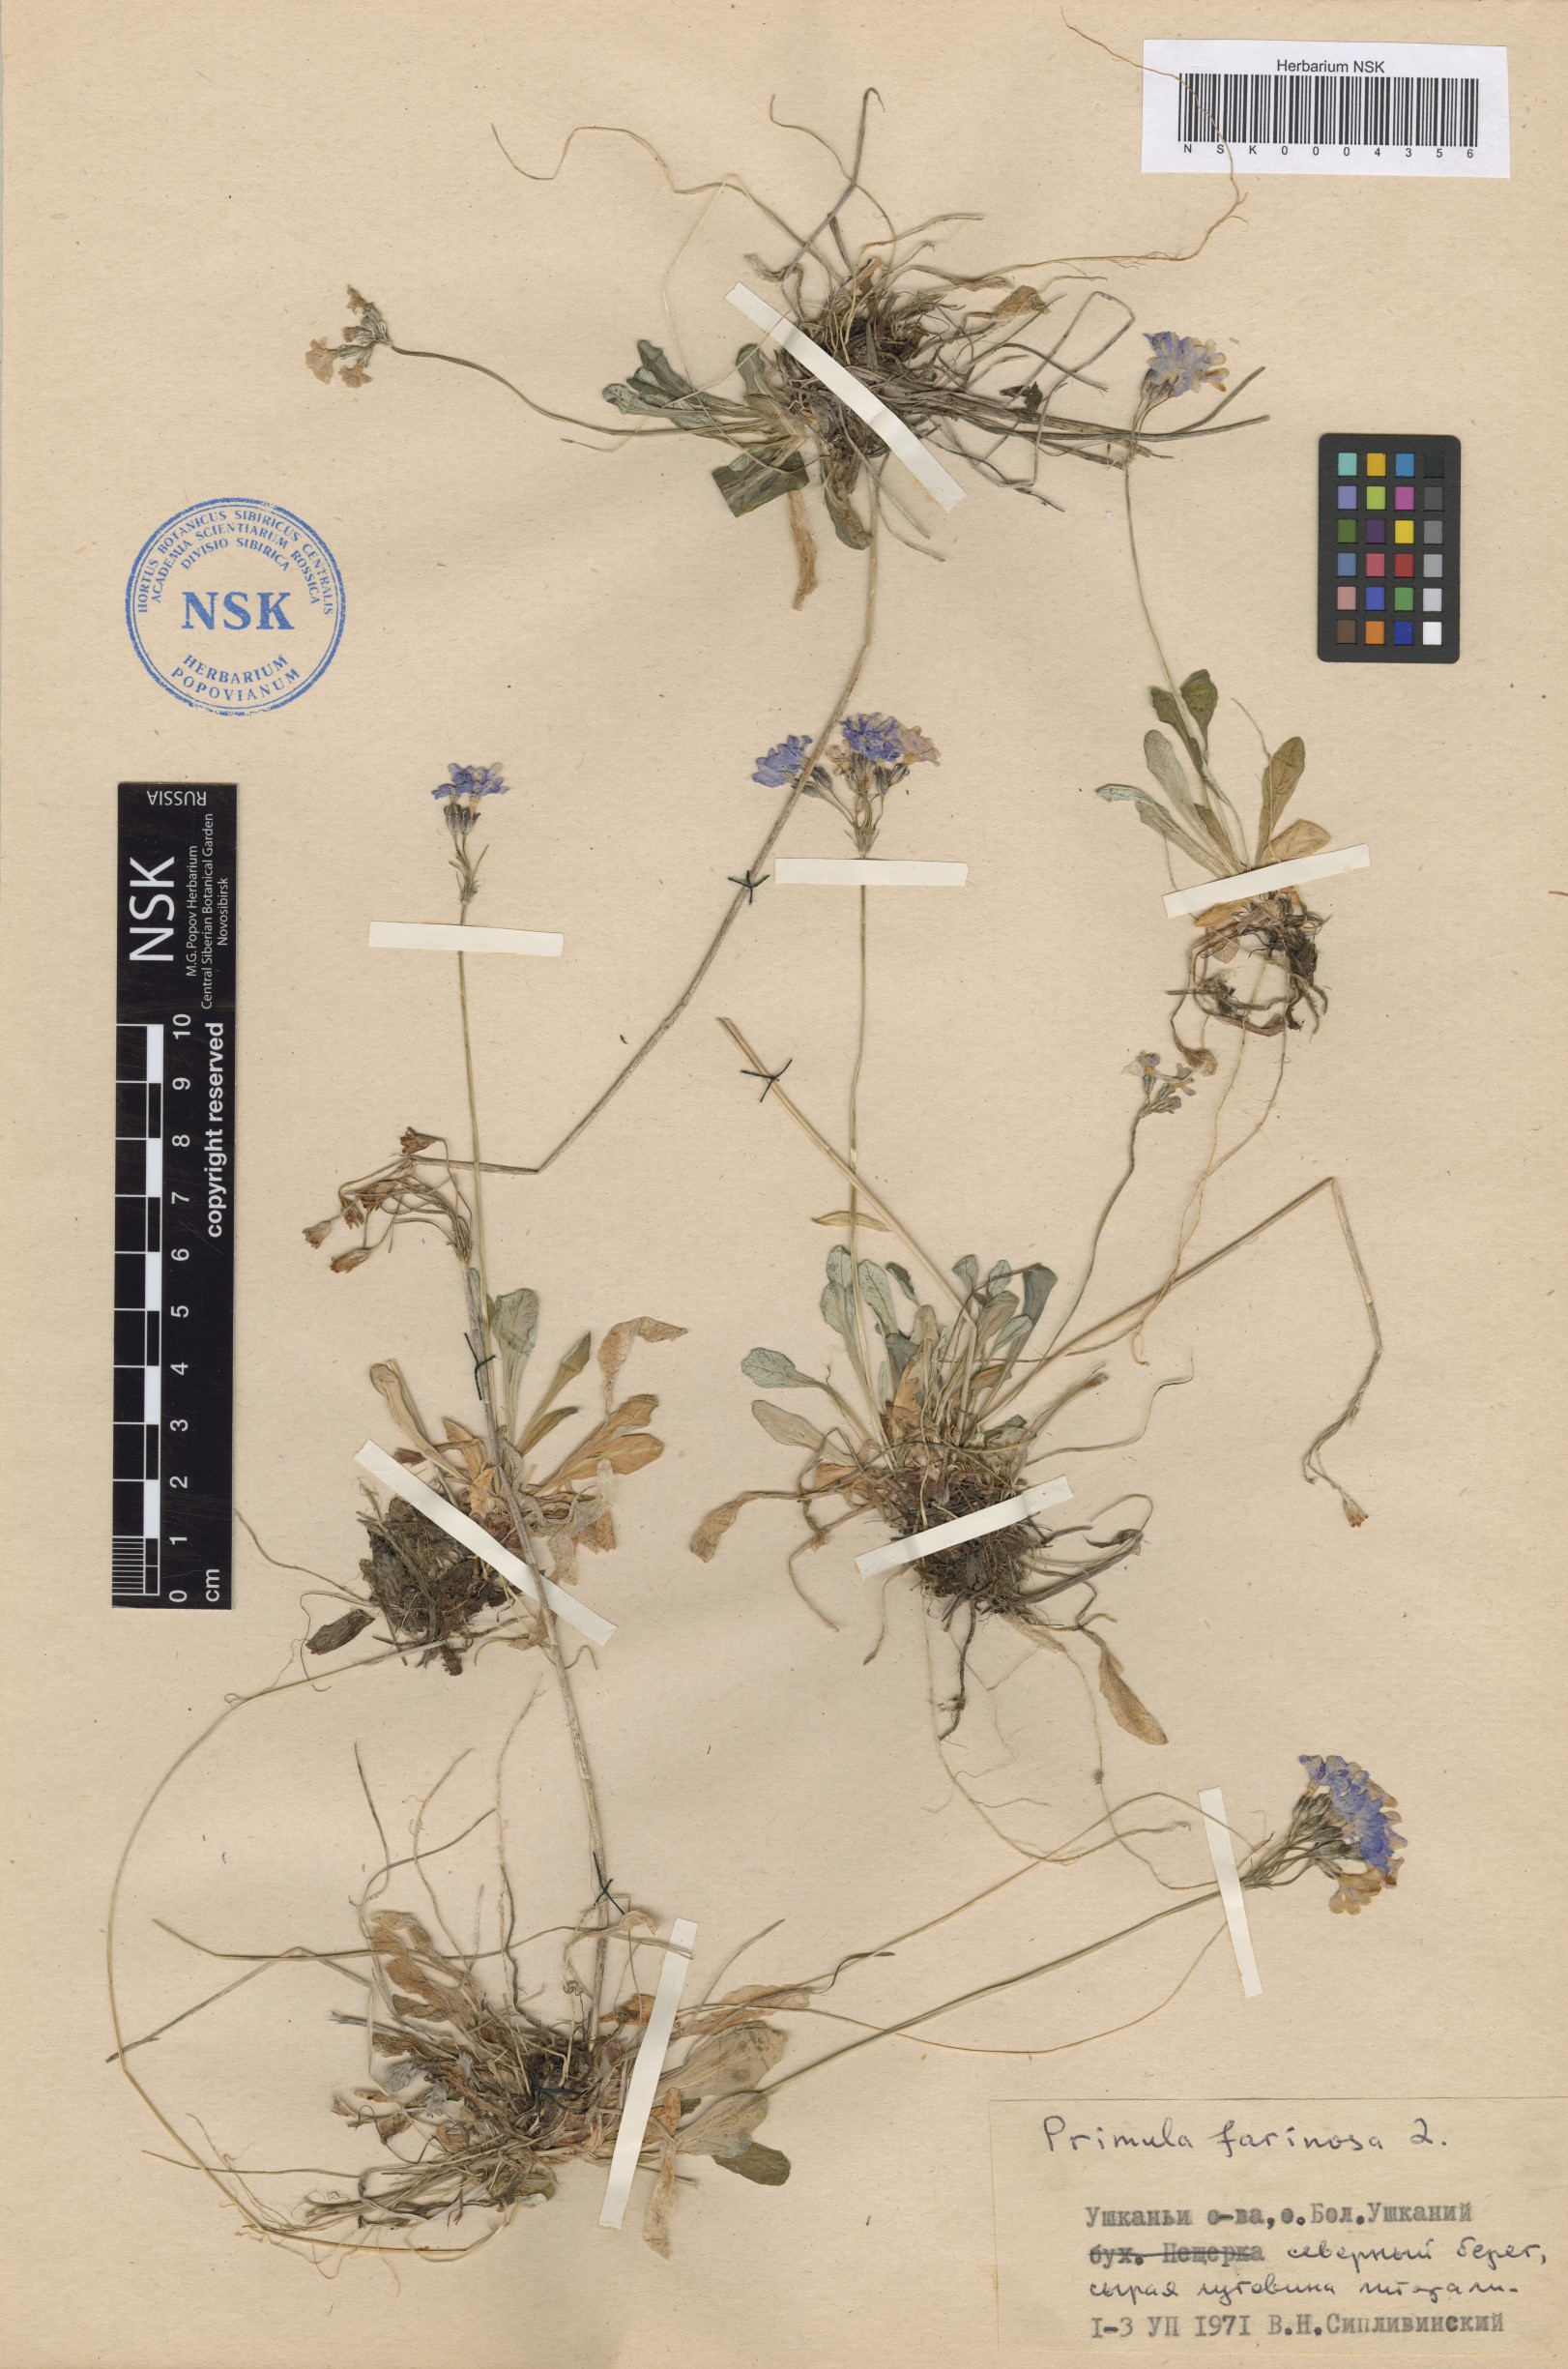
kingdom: Plantae
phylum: Tracheophyta
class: Magnoliopsida
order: Ericales
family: Primulaceae
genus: Primula
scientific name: Primula farinosa
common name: Bird's-eye primrose
